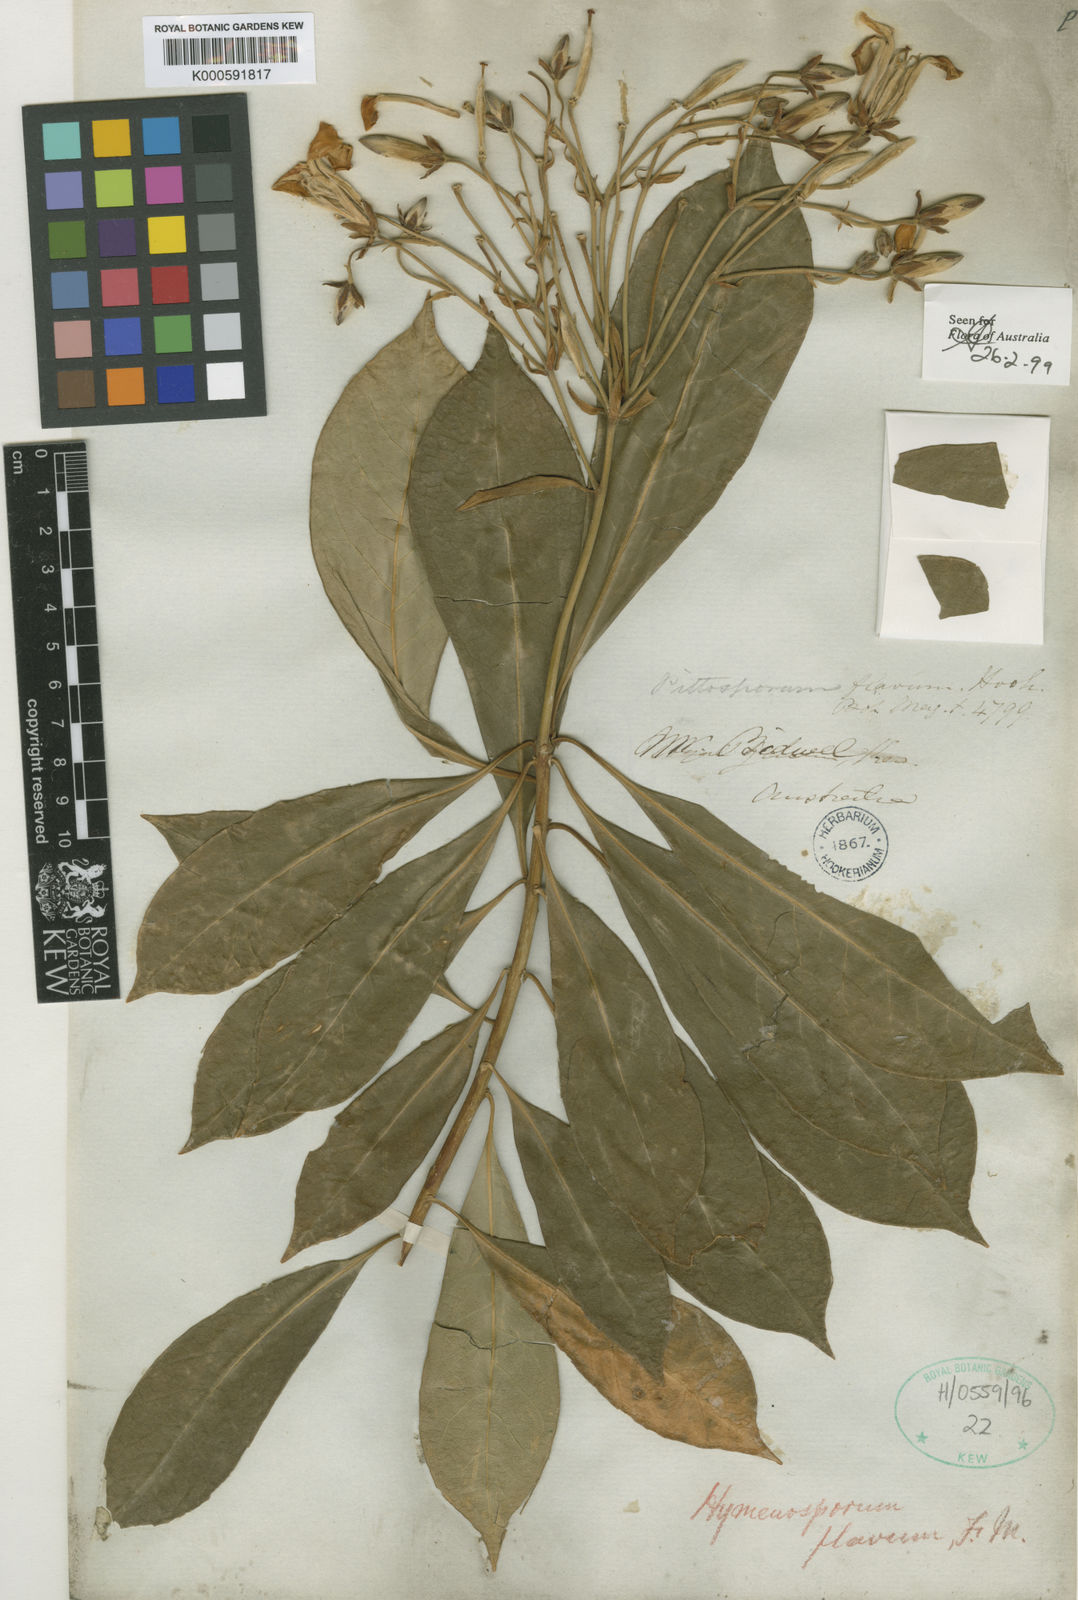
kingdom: Plantae
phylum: Tracheophyta
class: Magnoliopsida
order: Apiales
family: Pittosporaceae
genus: Hymenosporum
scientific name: Hymenosporum flavum
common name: Native frangipani
